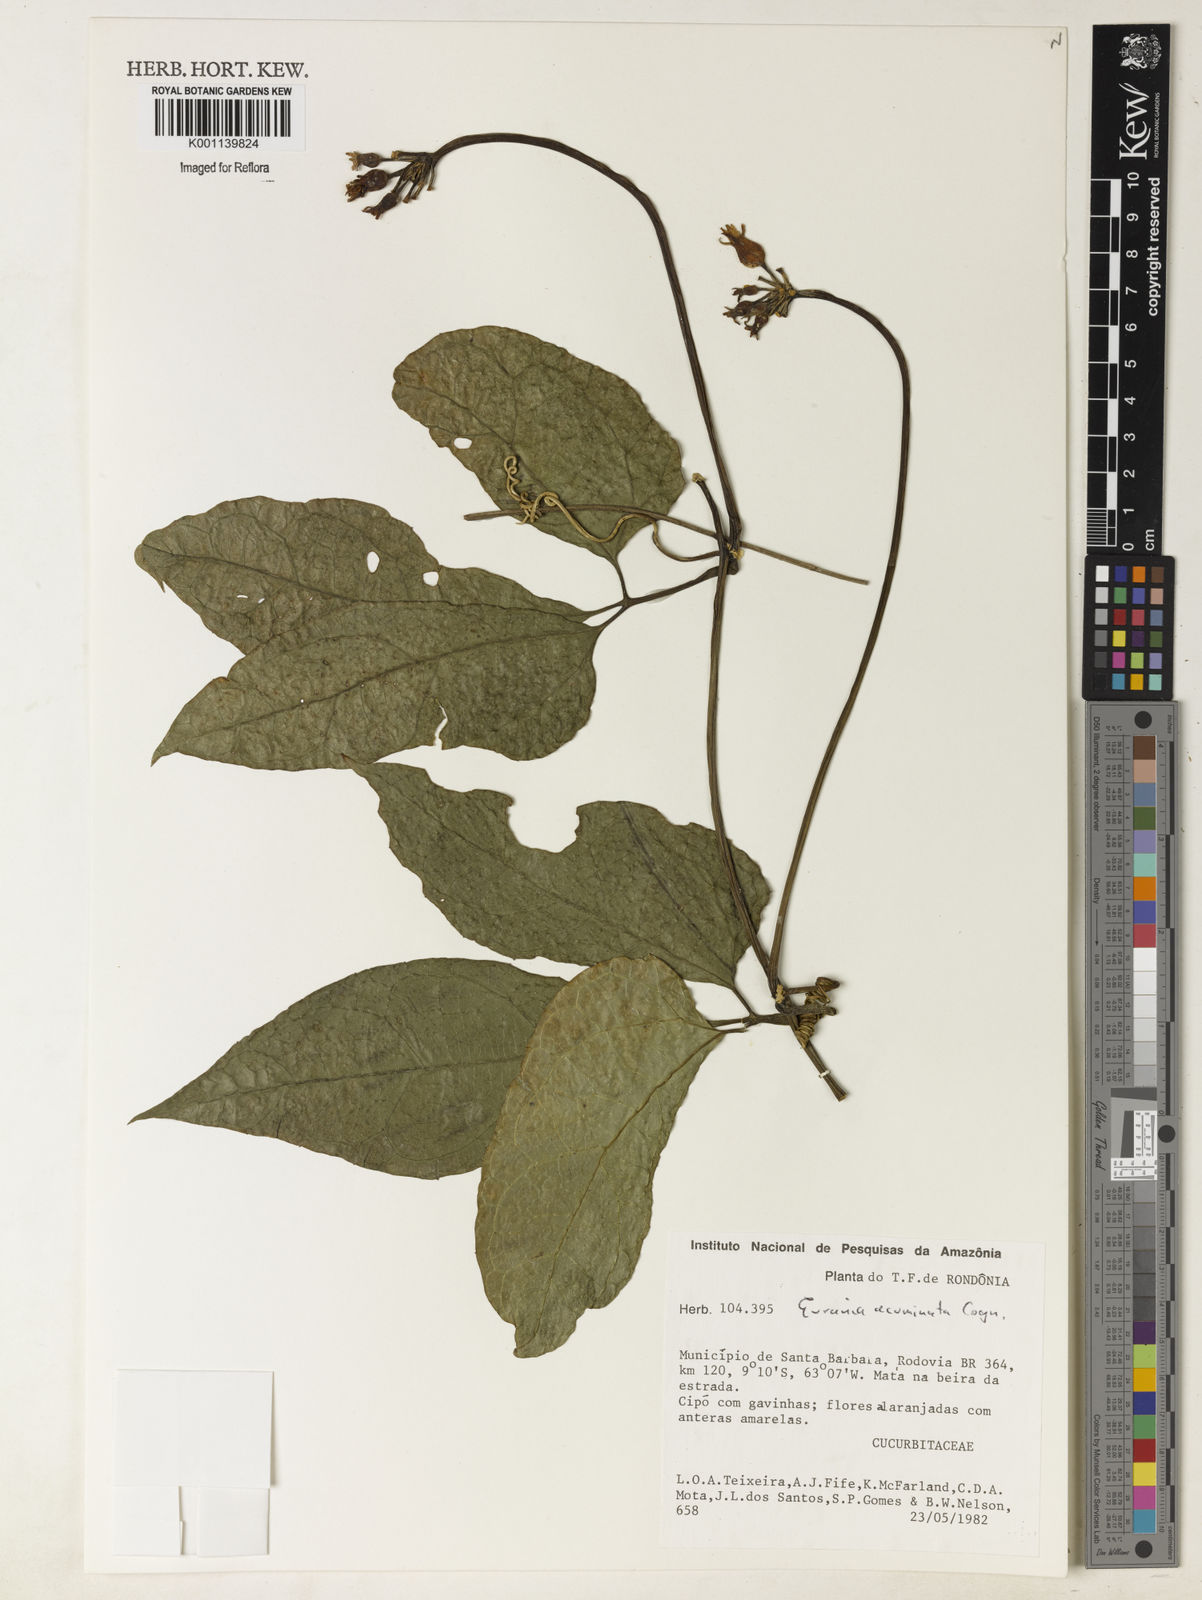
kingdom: Plantae
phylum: Tracheophyta
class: Magnoliopsida
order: Cucurbitales
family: Cucurbitaceae
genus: Gurania
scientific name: Gurania acuminata
